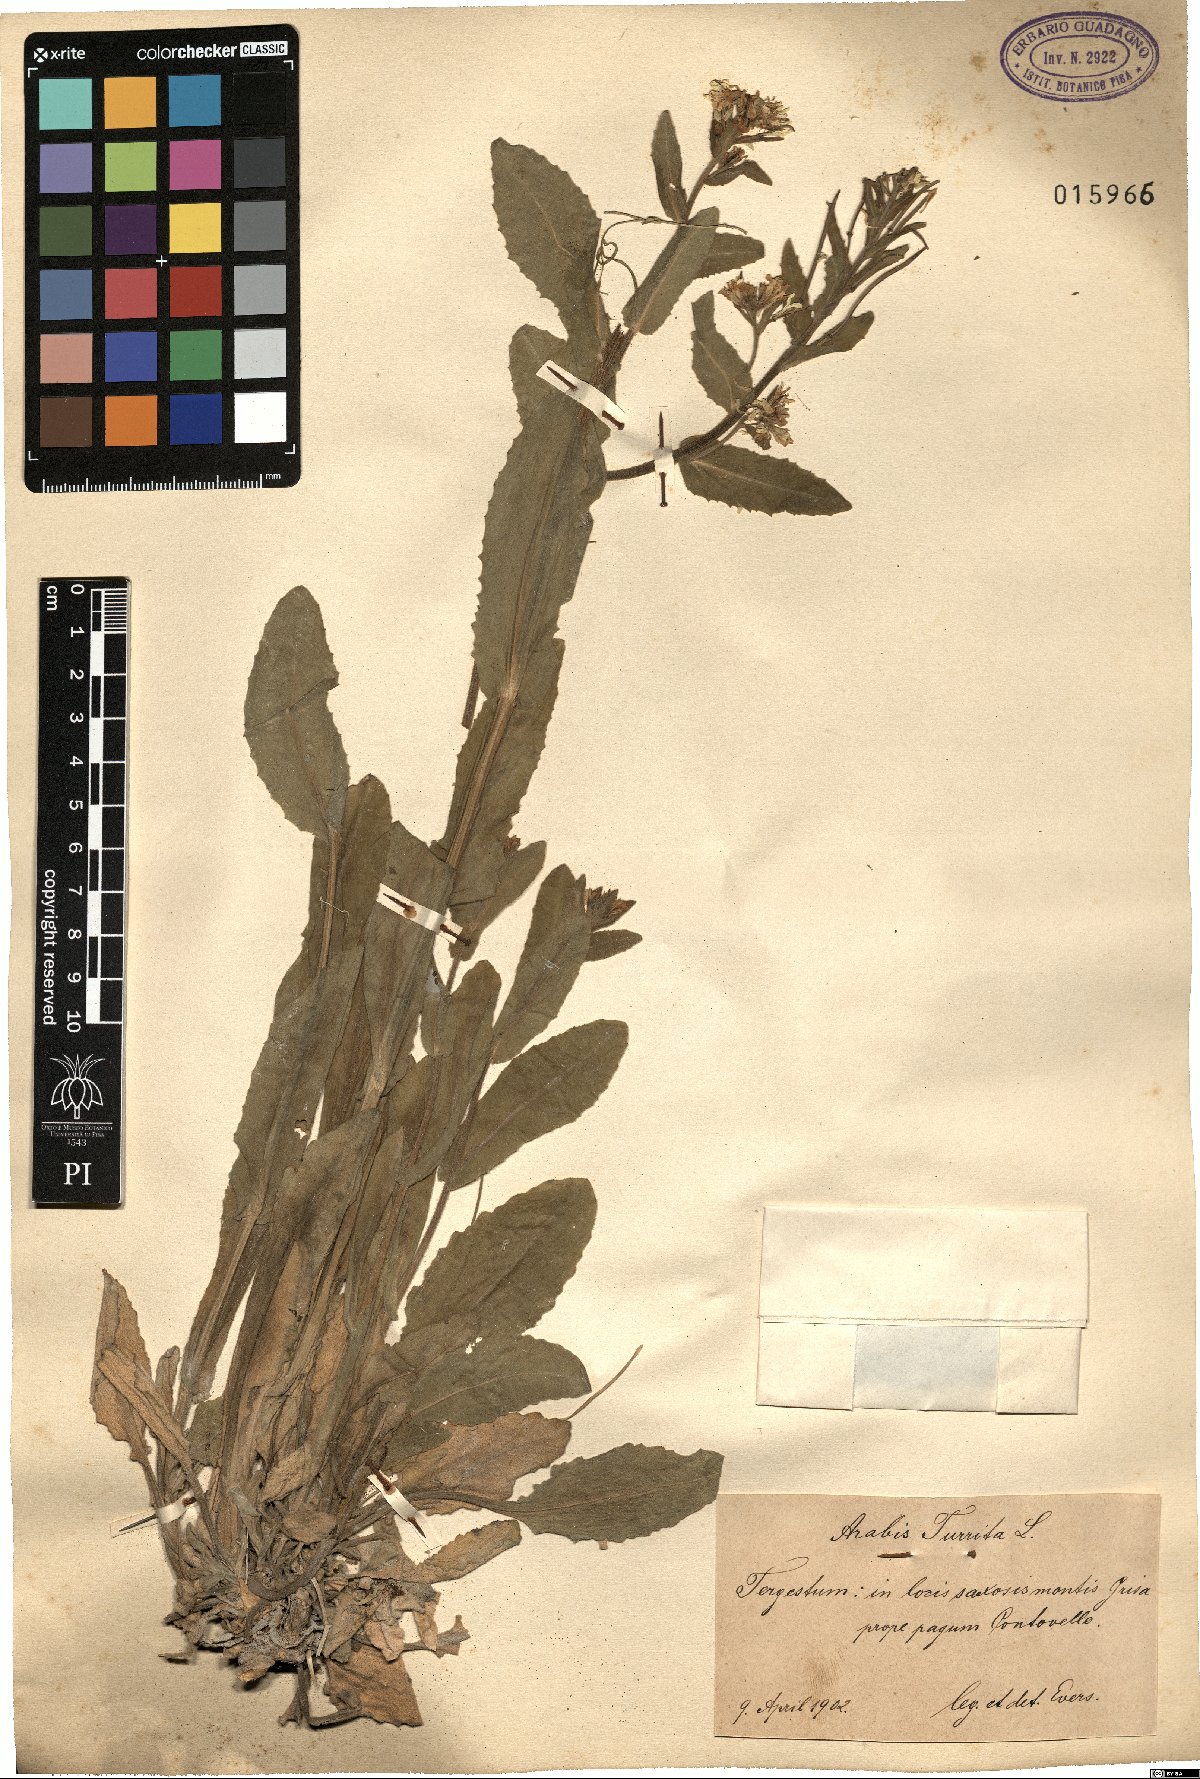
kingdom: Plantae
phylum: Tracheophyta
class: Magnoliopsida
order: Brassicales
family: Brassicaceae
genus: Pseudoturritis
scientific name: Pseudoturritis turrita
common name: Tower cress
